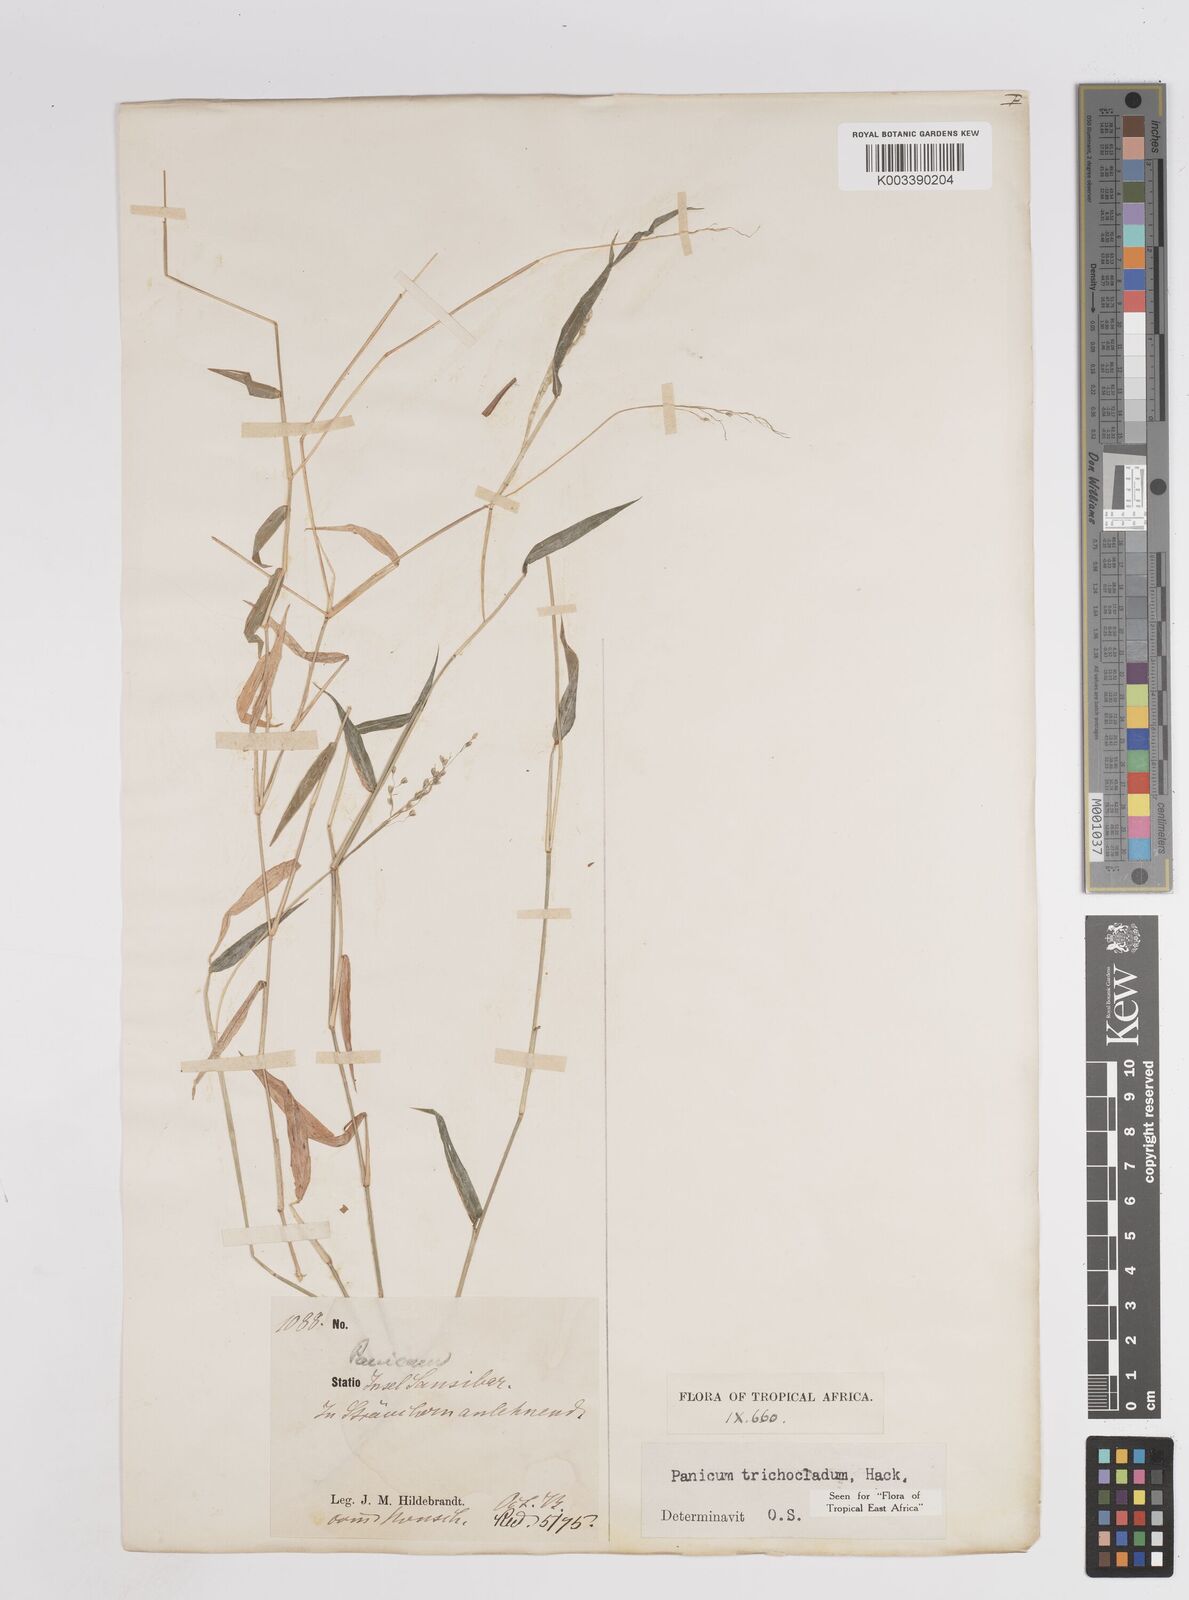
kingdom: Plantae
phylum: Tracheophyta
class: Liliopsida
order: Poales
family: Poaceae
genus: Panicum
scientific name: Panicum trichocladum
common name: Donkey grass
